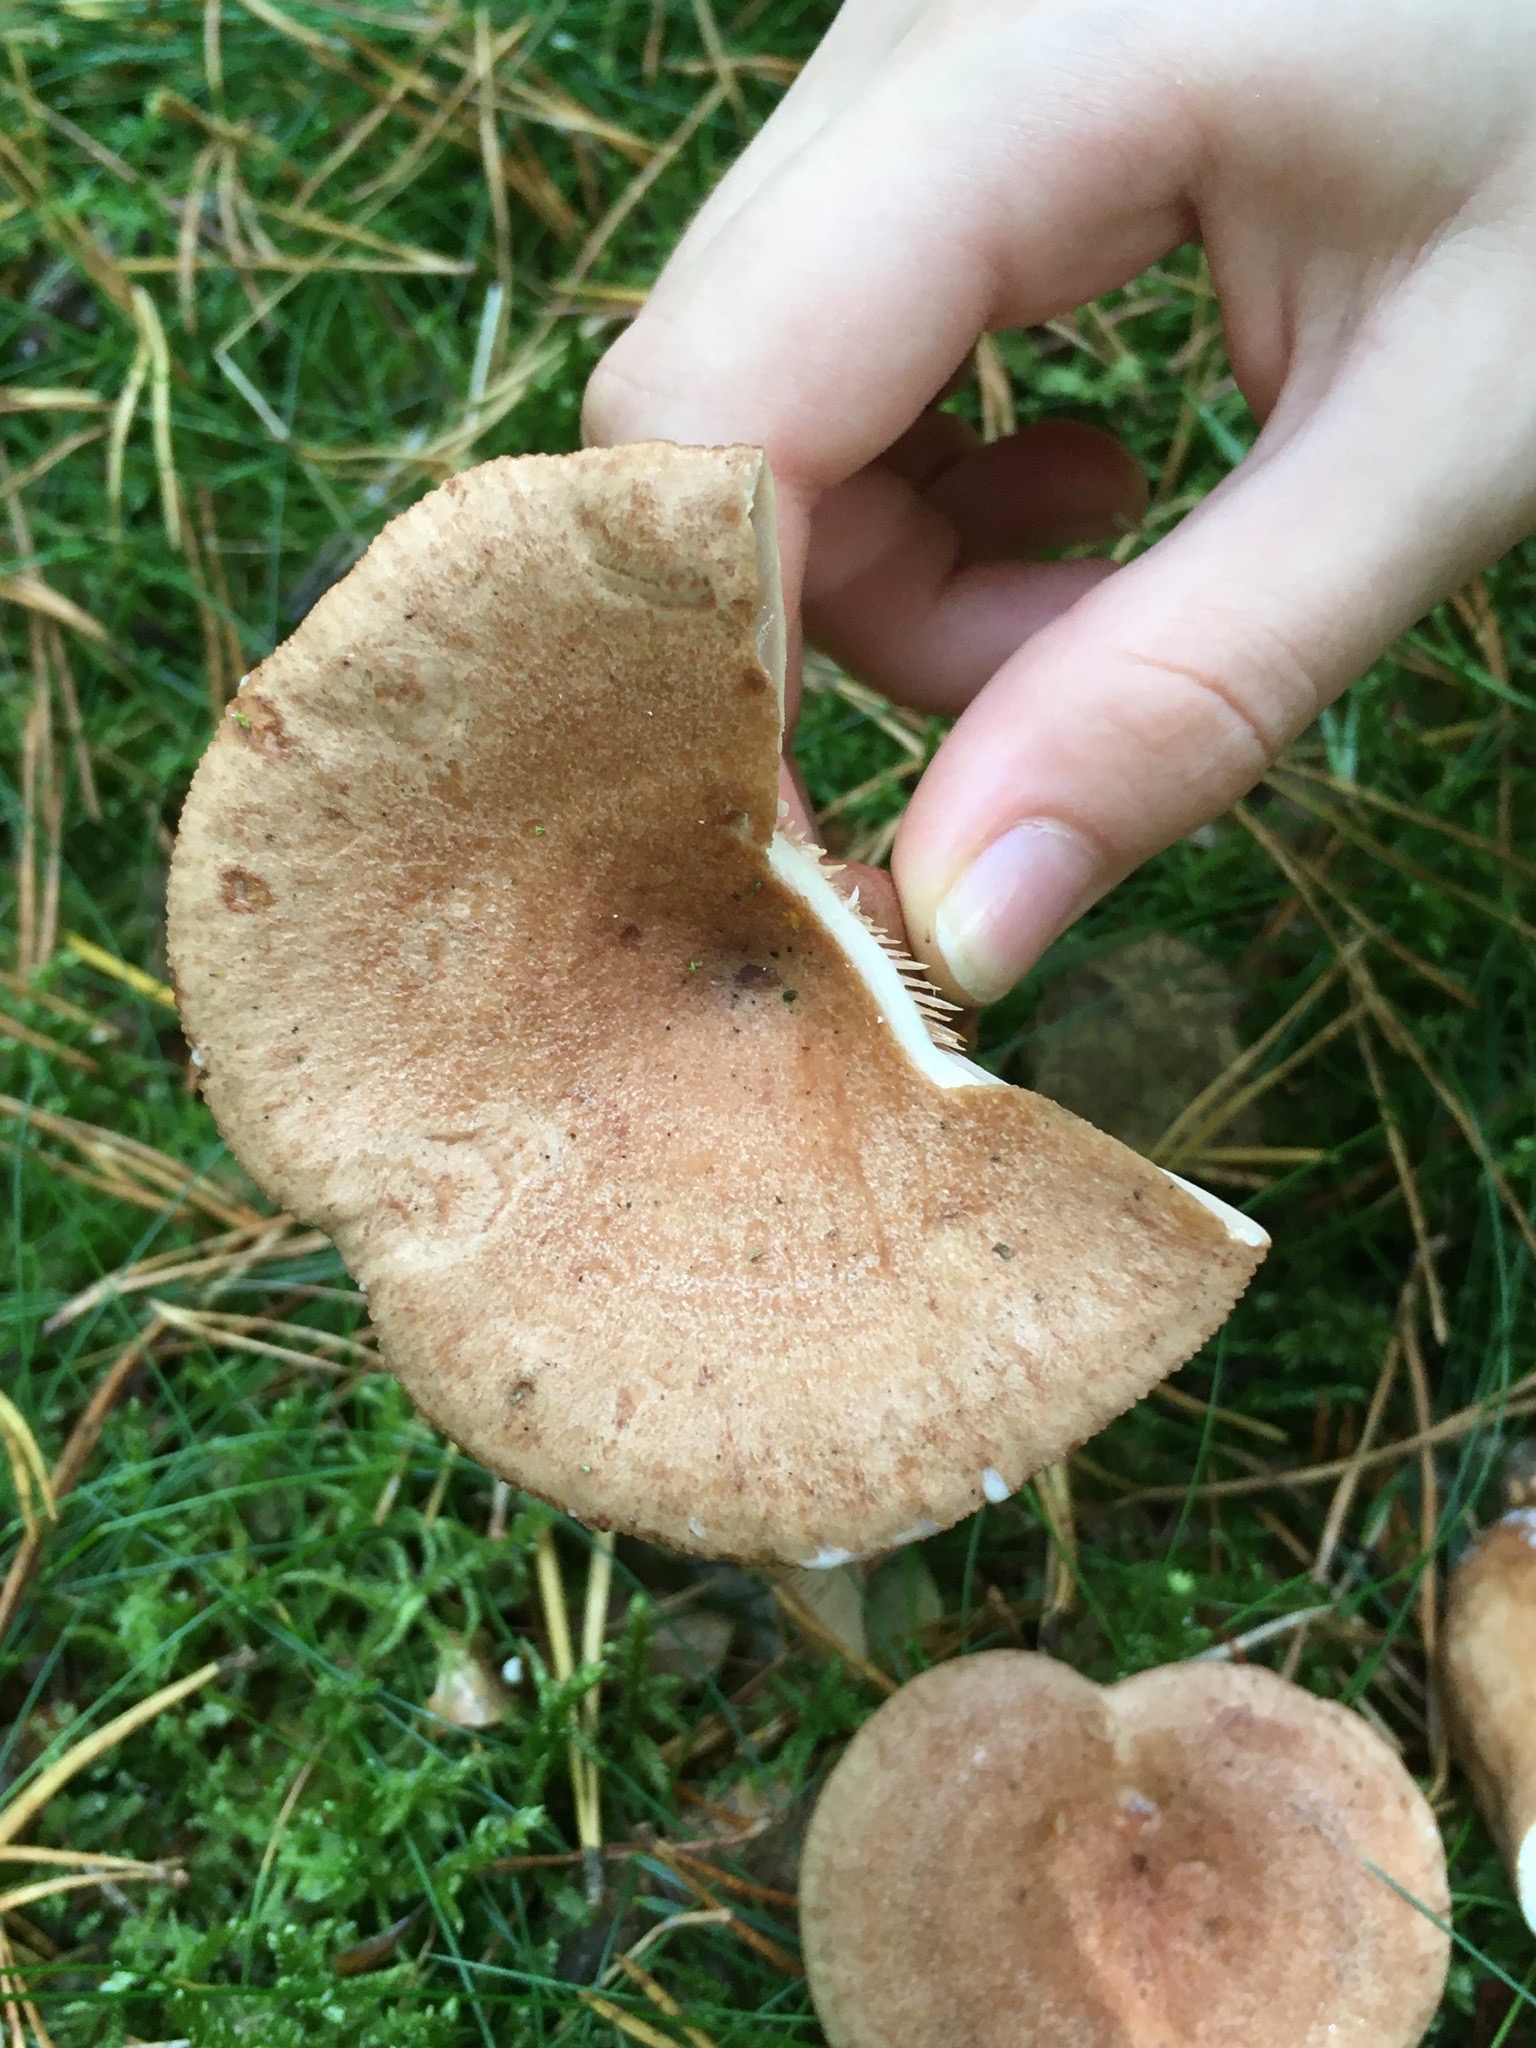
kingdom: Fungi
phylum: Basidiomycota
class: Agaricomycetes
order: Russulales
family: Russulaceae
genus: Lactarius
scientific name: Lactarius quietus
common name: ege-mælkehat
